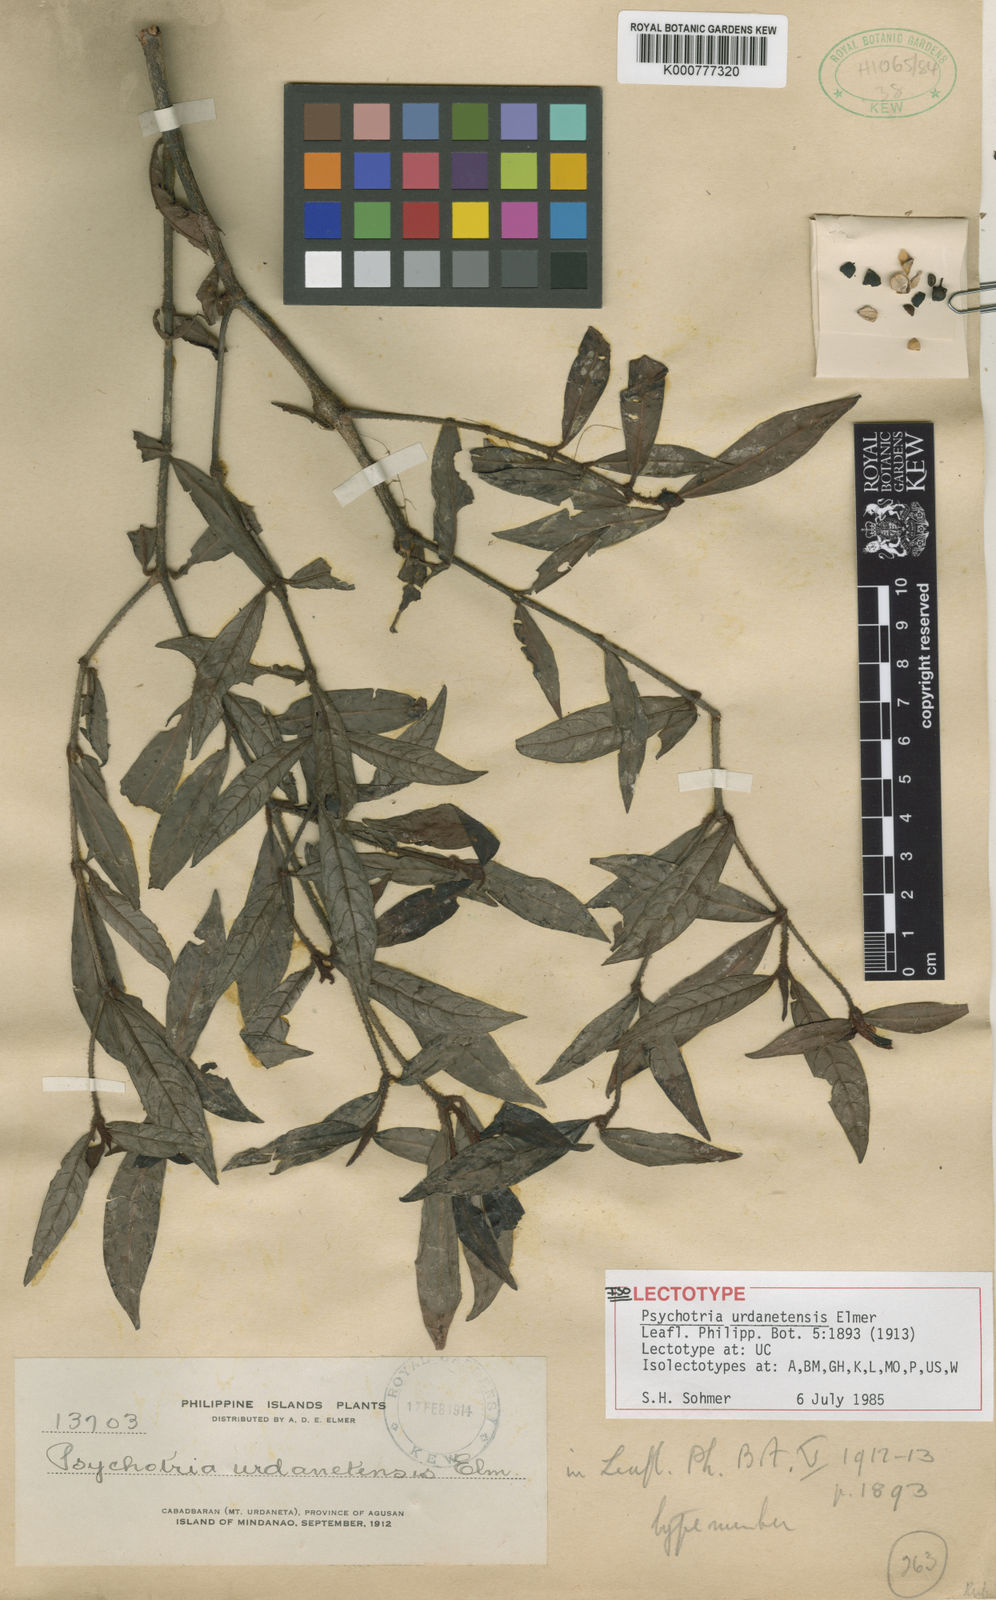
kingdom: Plantae
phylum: Tracheophyta
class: Magnoliopsida
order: Gentianales
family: Rubiaceae
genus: Psychotria
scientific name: Psychotria urdanetensis
